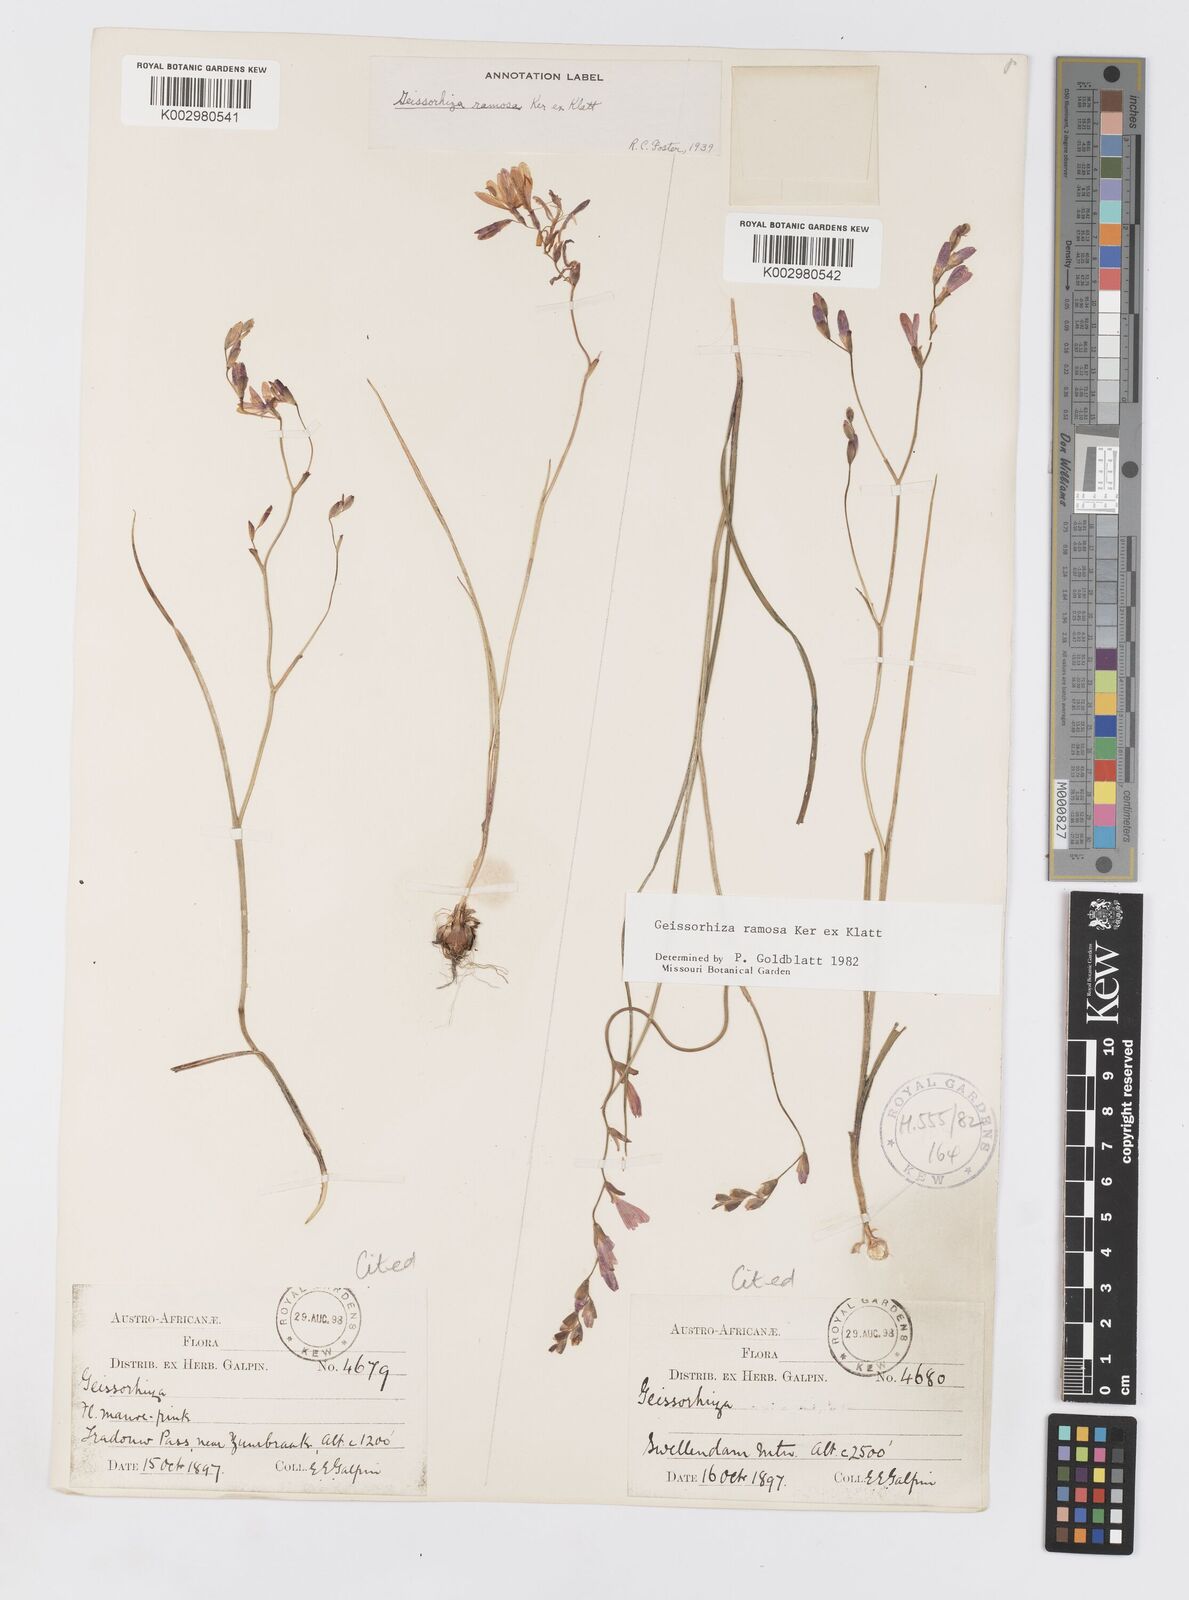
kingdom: Plantae
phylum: Tracheophyta
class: Liliopsida
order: Asparagales
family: Iridaceae
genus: Geissorhiza
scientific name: Geissorhiza ramosa
